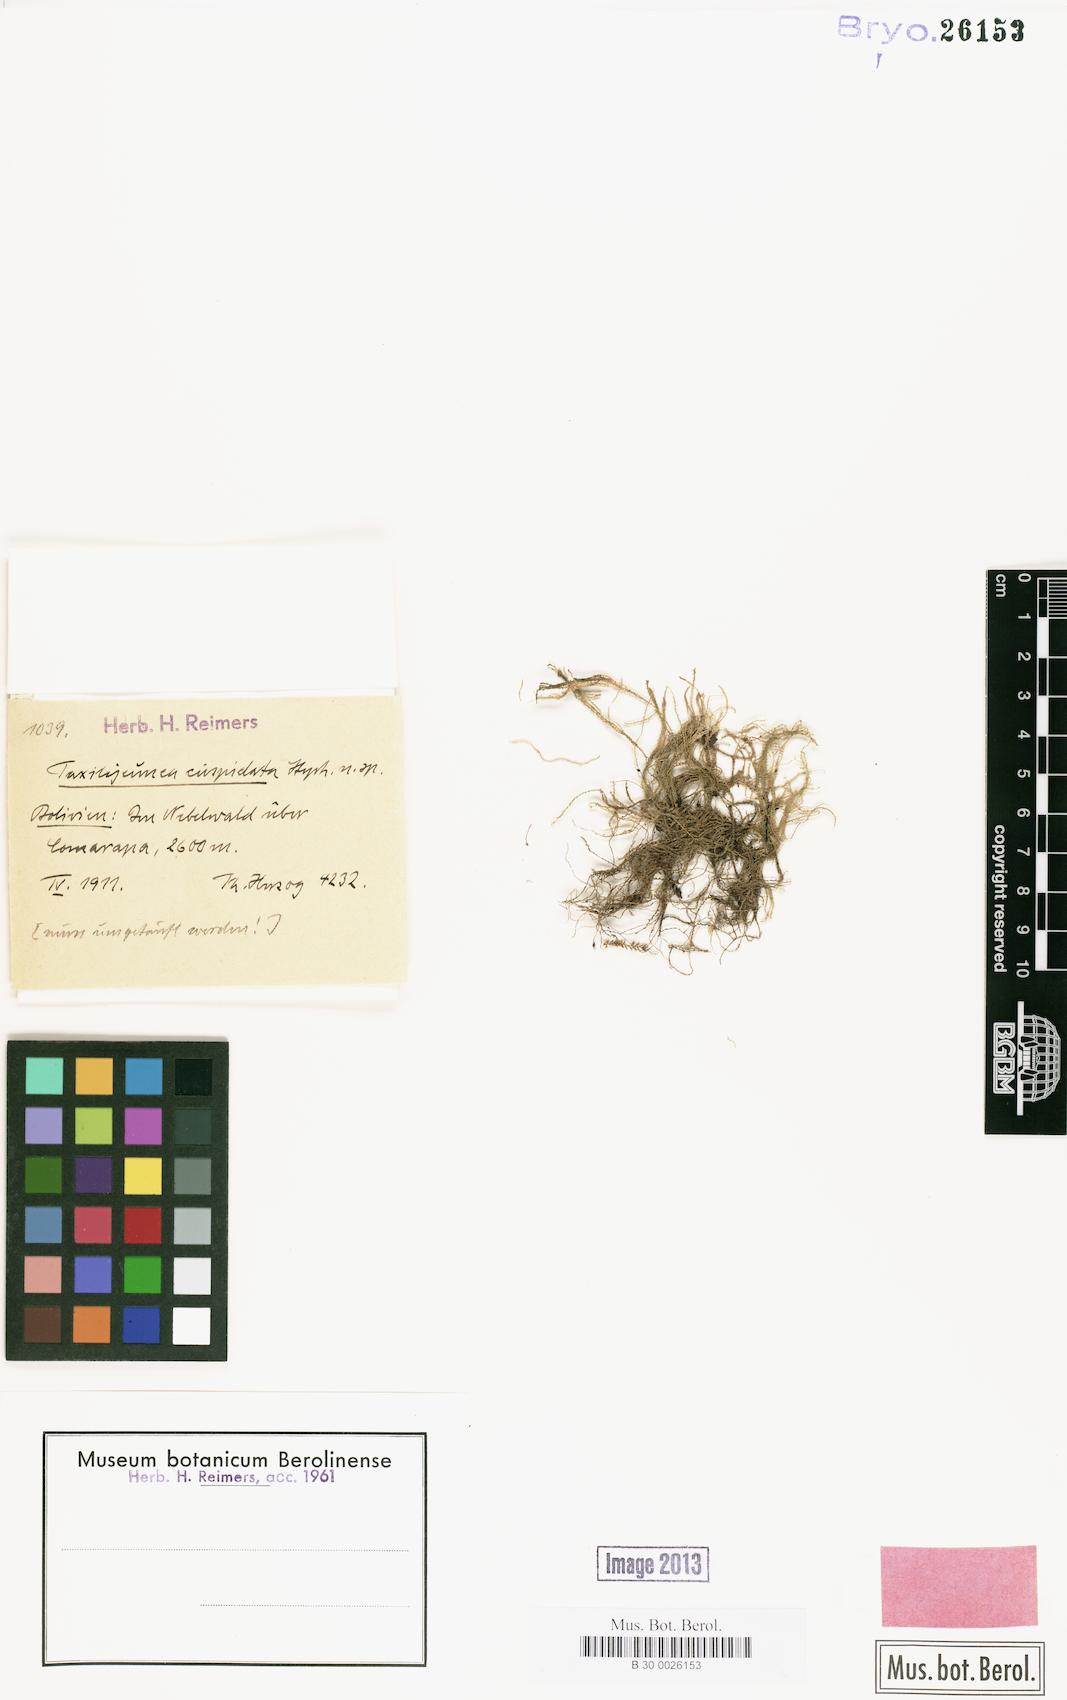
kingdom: Plantae
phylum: Marchantiophyta
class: Jungermanniopsida
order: Porellales
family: Lejeuneaceae
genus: Taxilejeunea
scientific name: Taxilejeunea cuspidata
